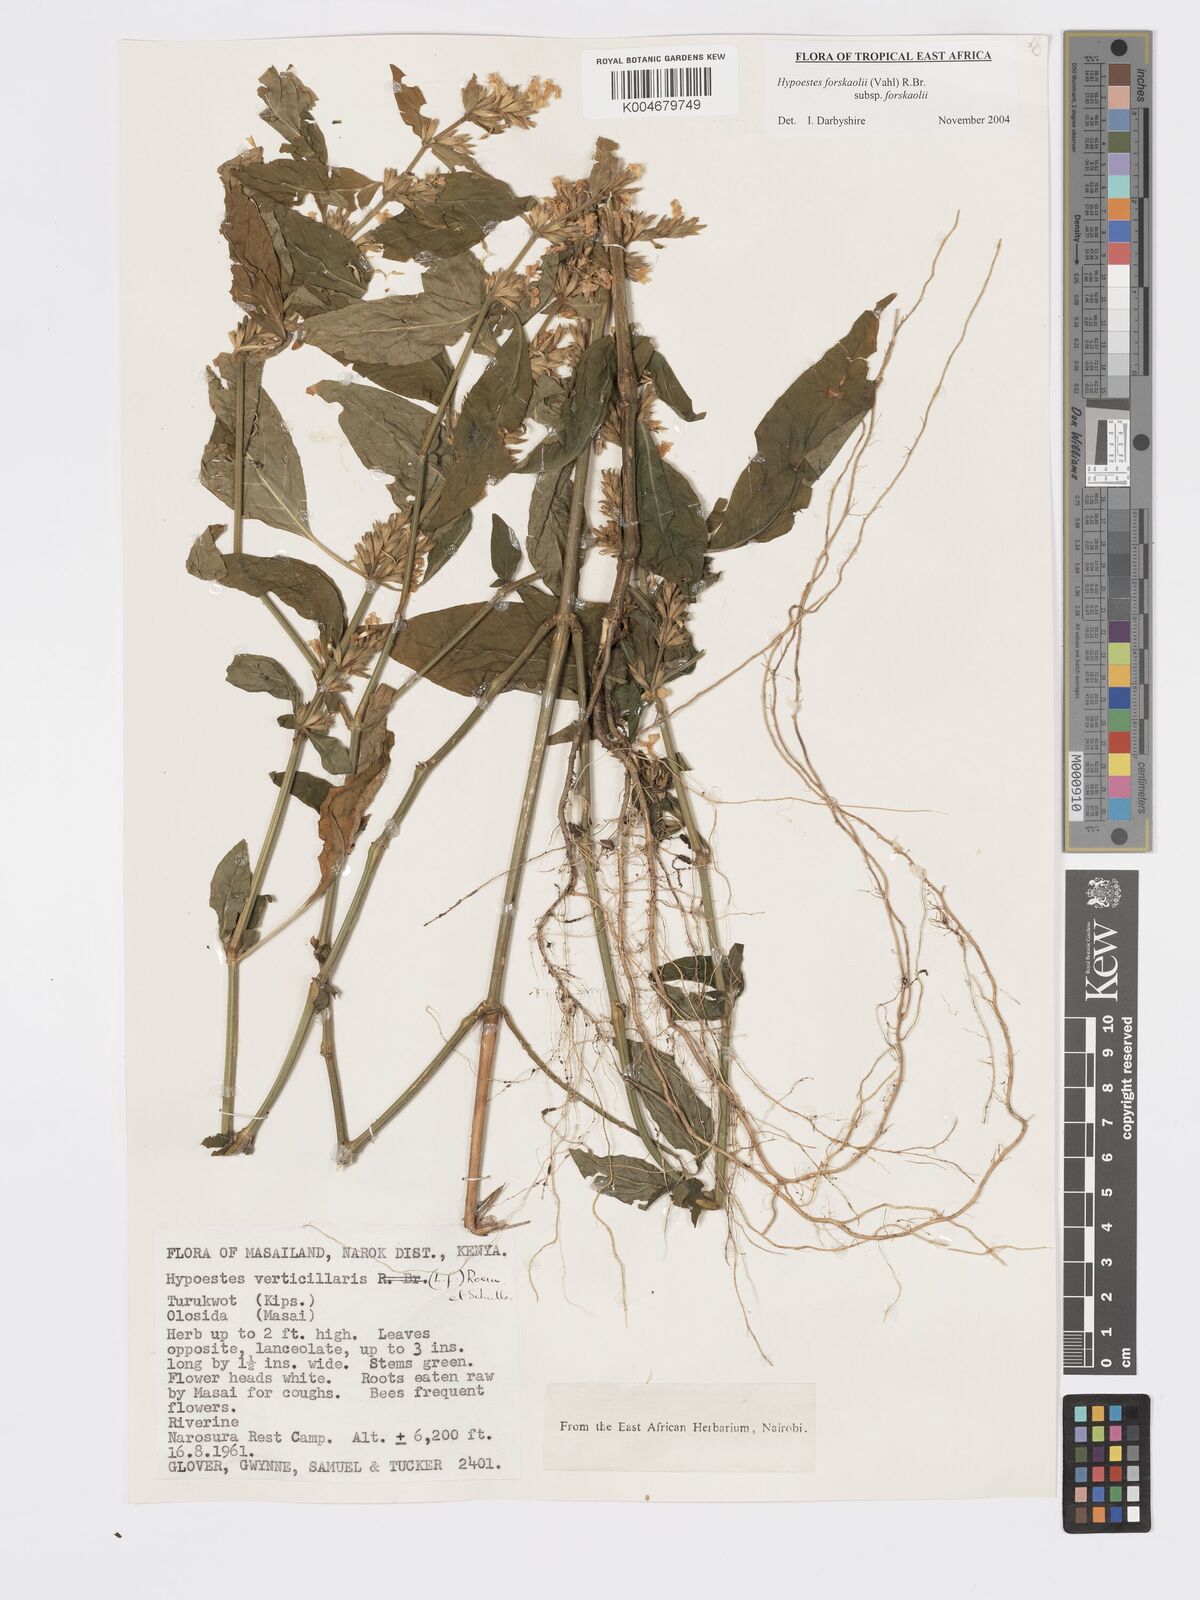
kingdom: Plantae
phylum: Tracheophyta
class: Magnoliopsida
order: Lamiales
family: Acanthaceae
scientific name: Acanthaceae
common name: Acanthaceae
